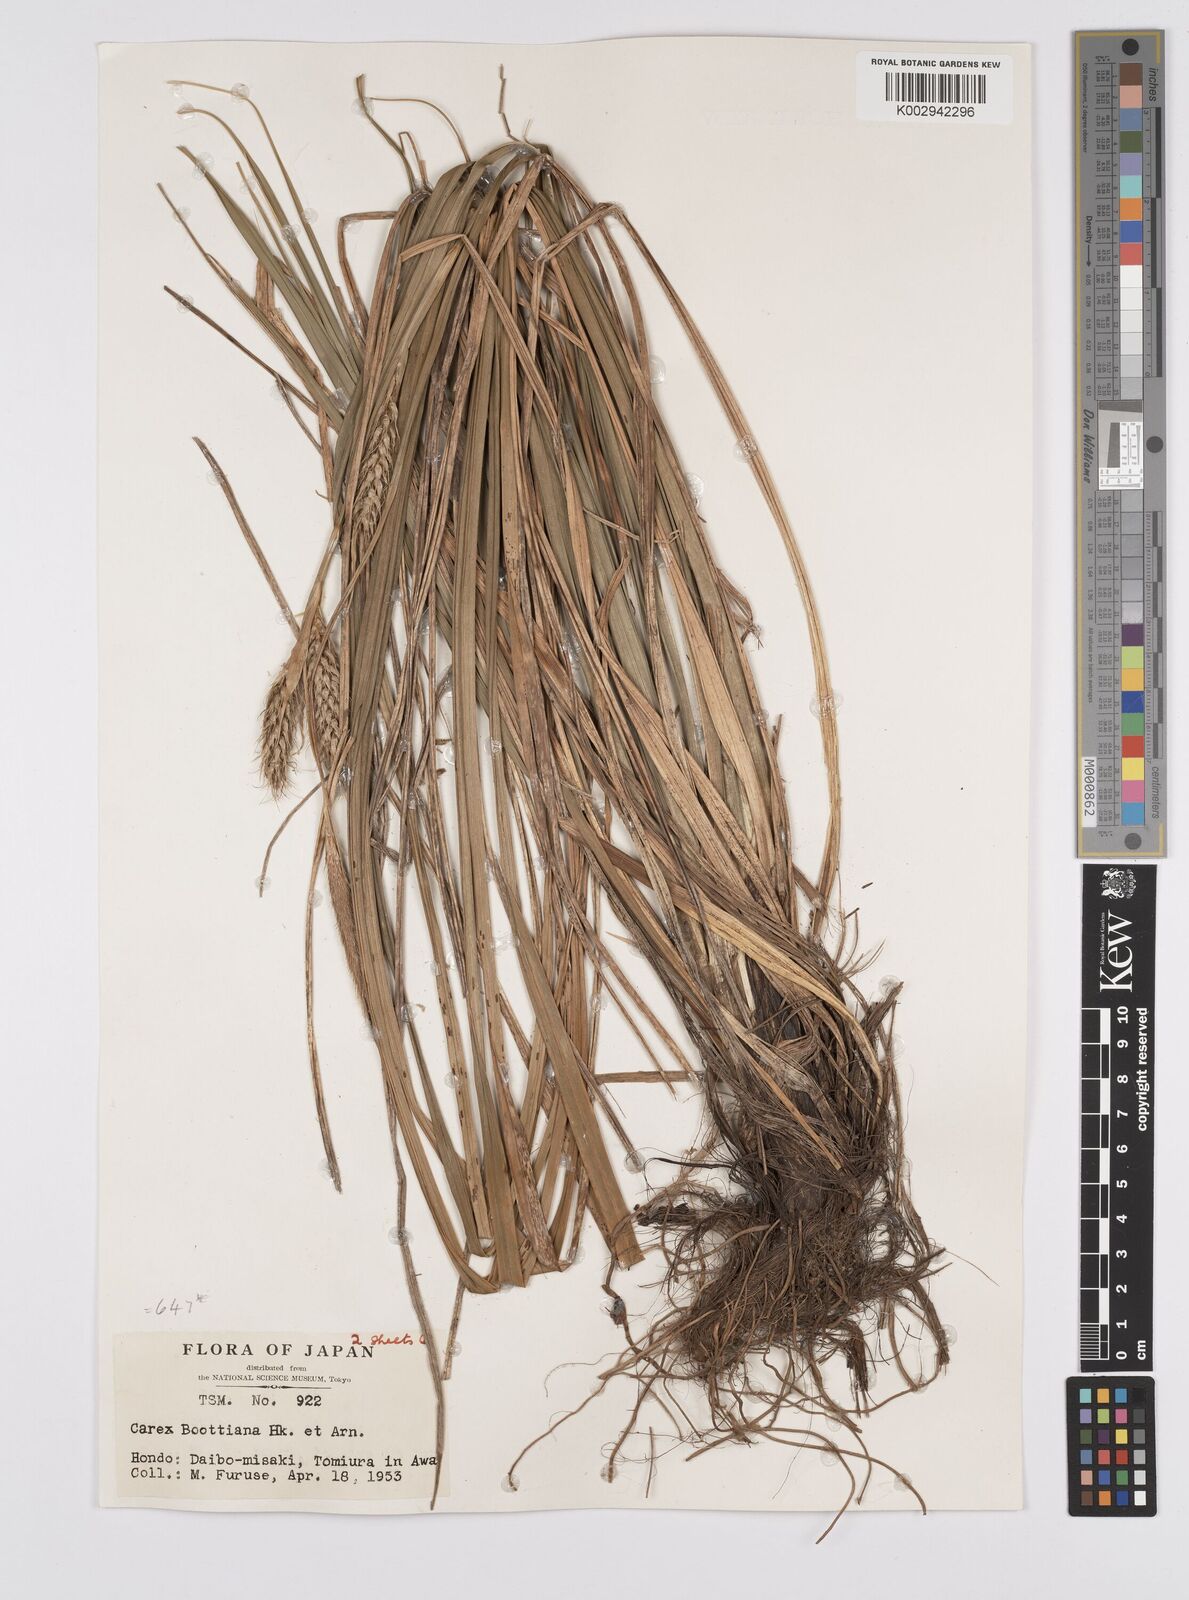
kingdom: Plantae
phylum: Tracheophyta
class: Liliopsida
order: Poales
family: Cyperaceae
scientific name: Cyperaceae
